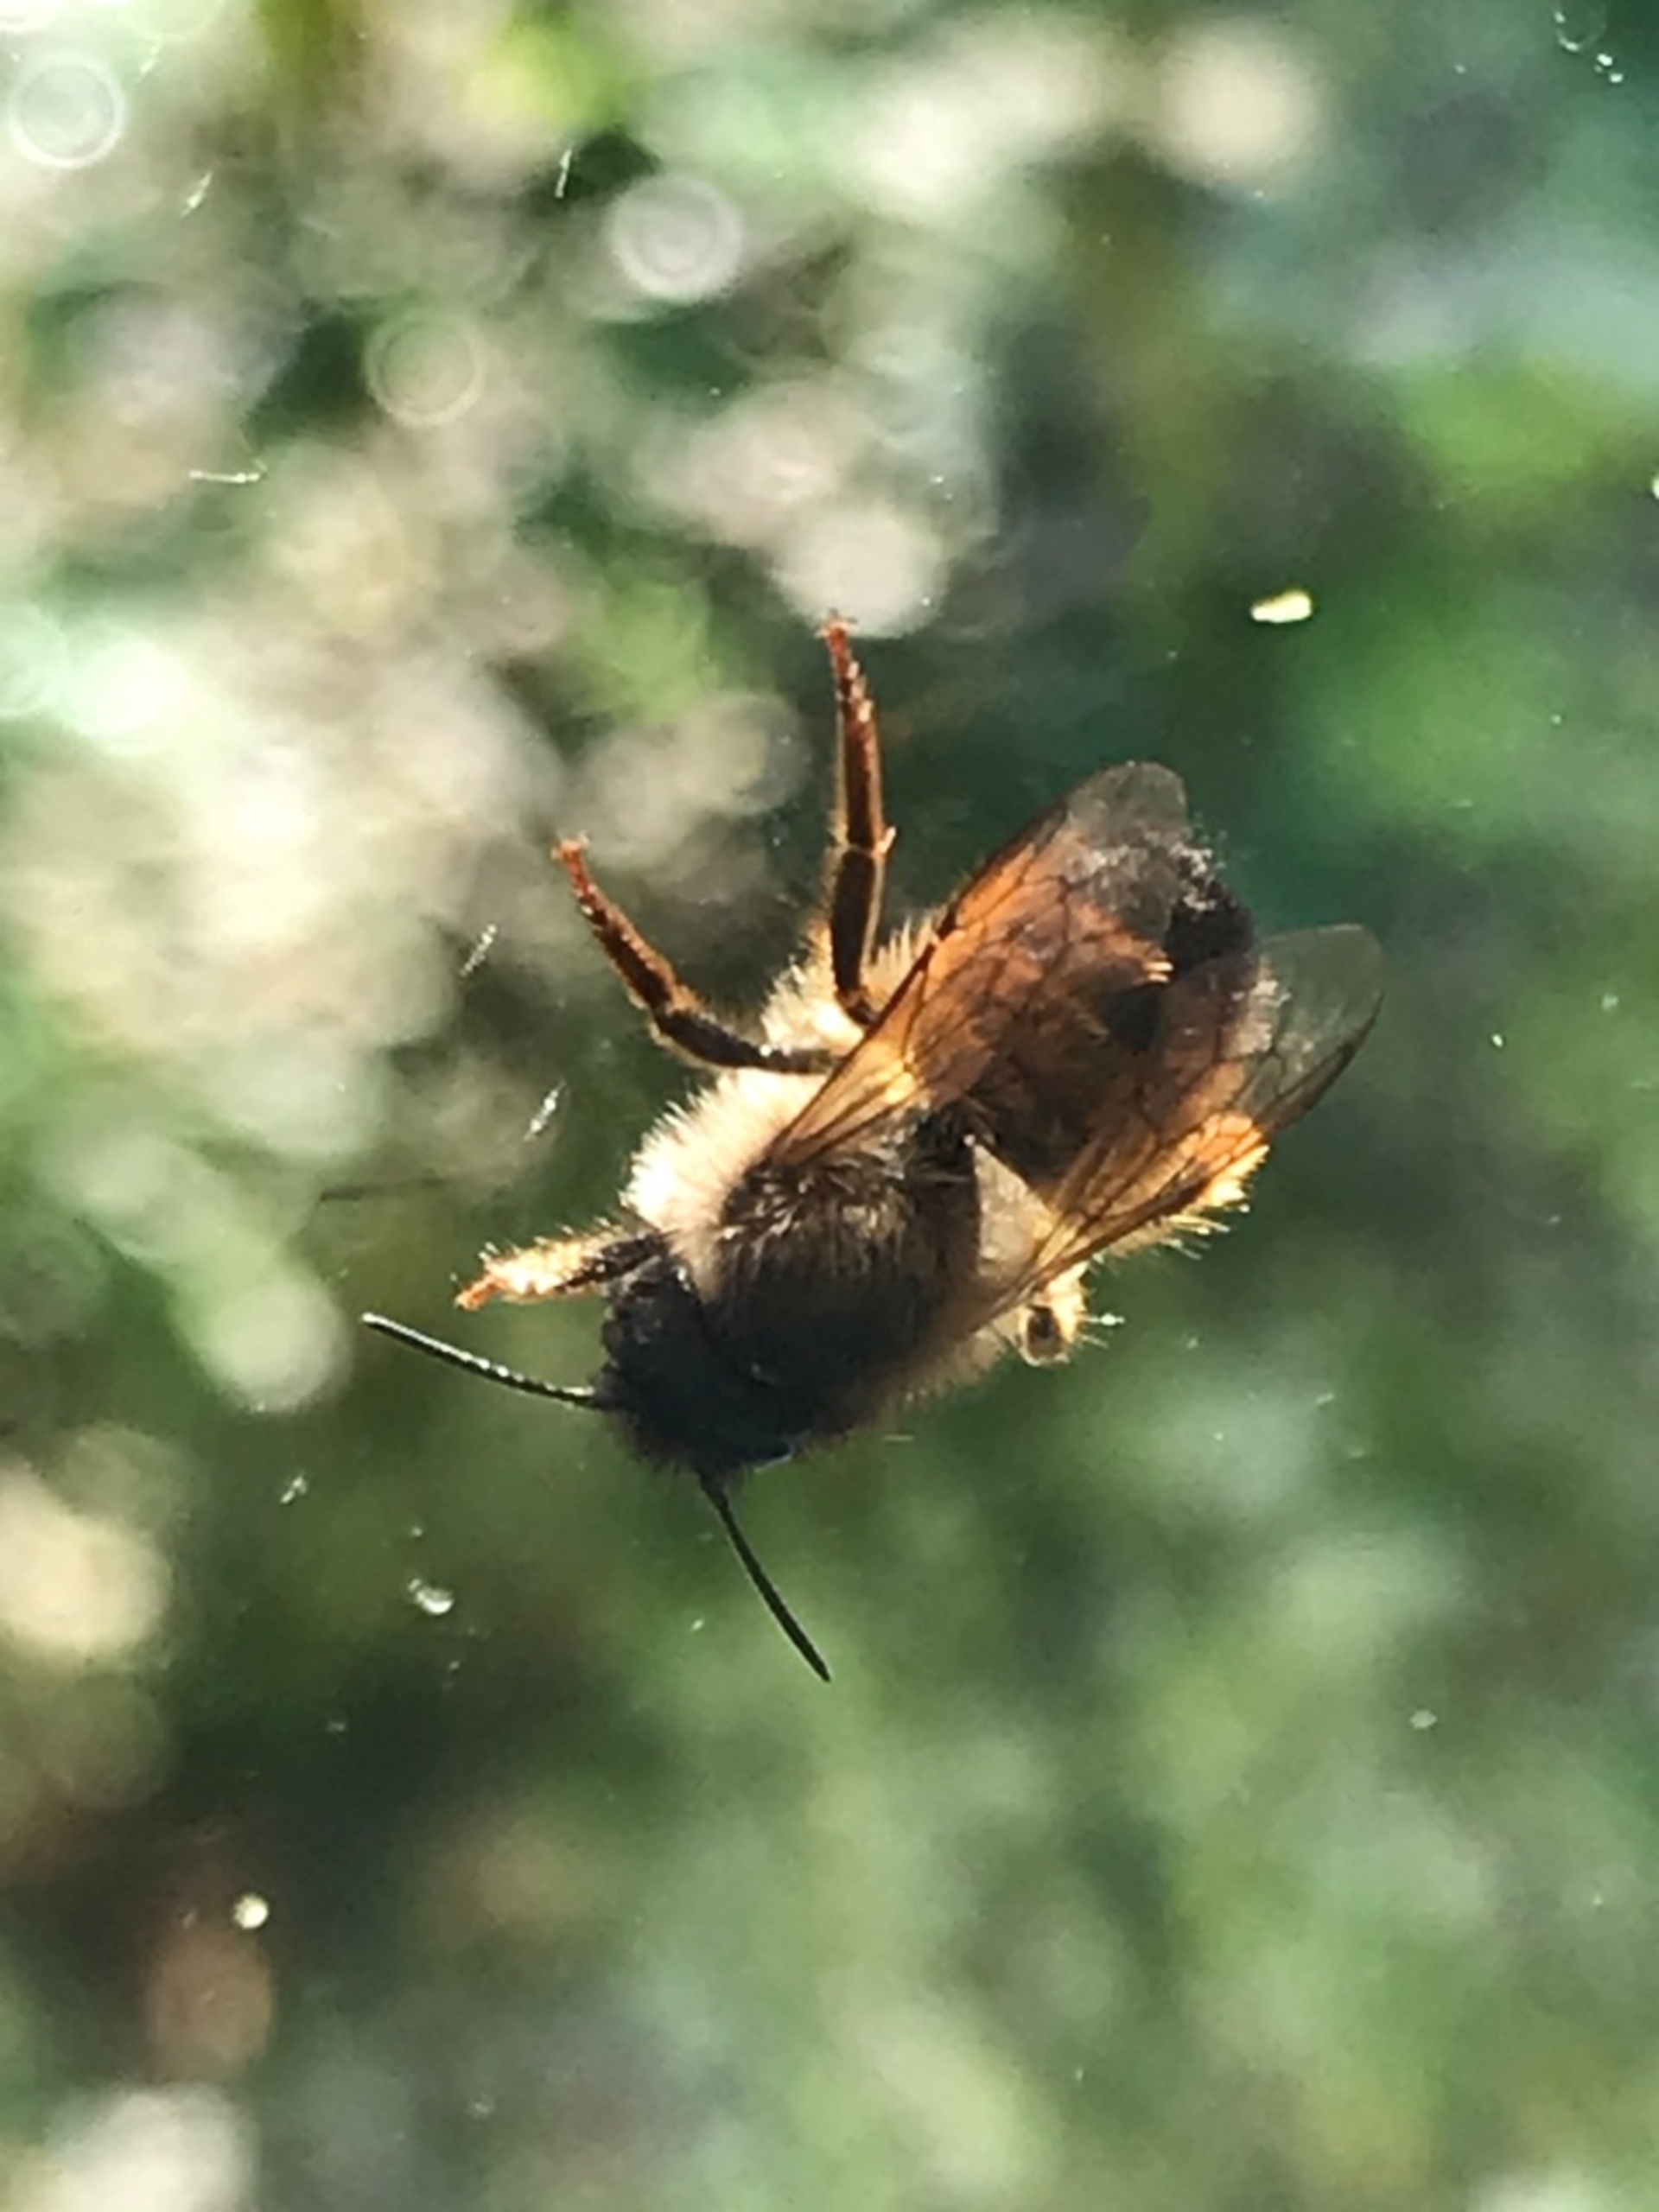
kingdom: Animalia
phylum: Arthropoda
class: Insecta
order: Hymenoptera
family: Megachilidae
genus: Osmia
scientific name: Osmia
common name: Murerbier
